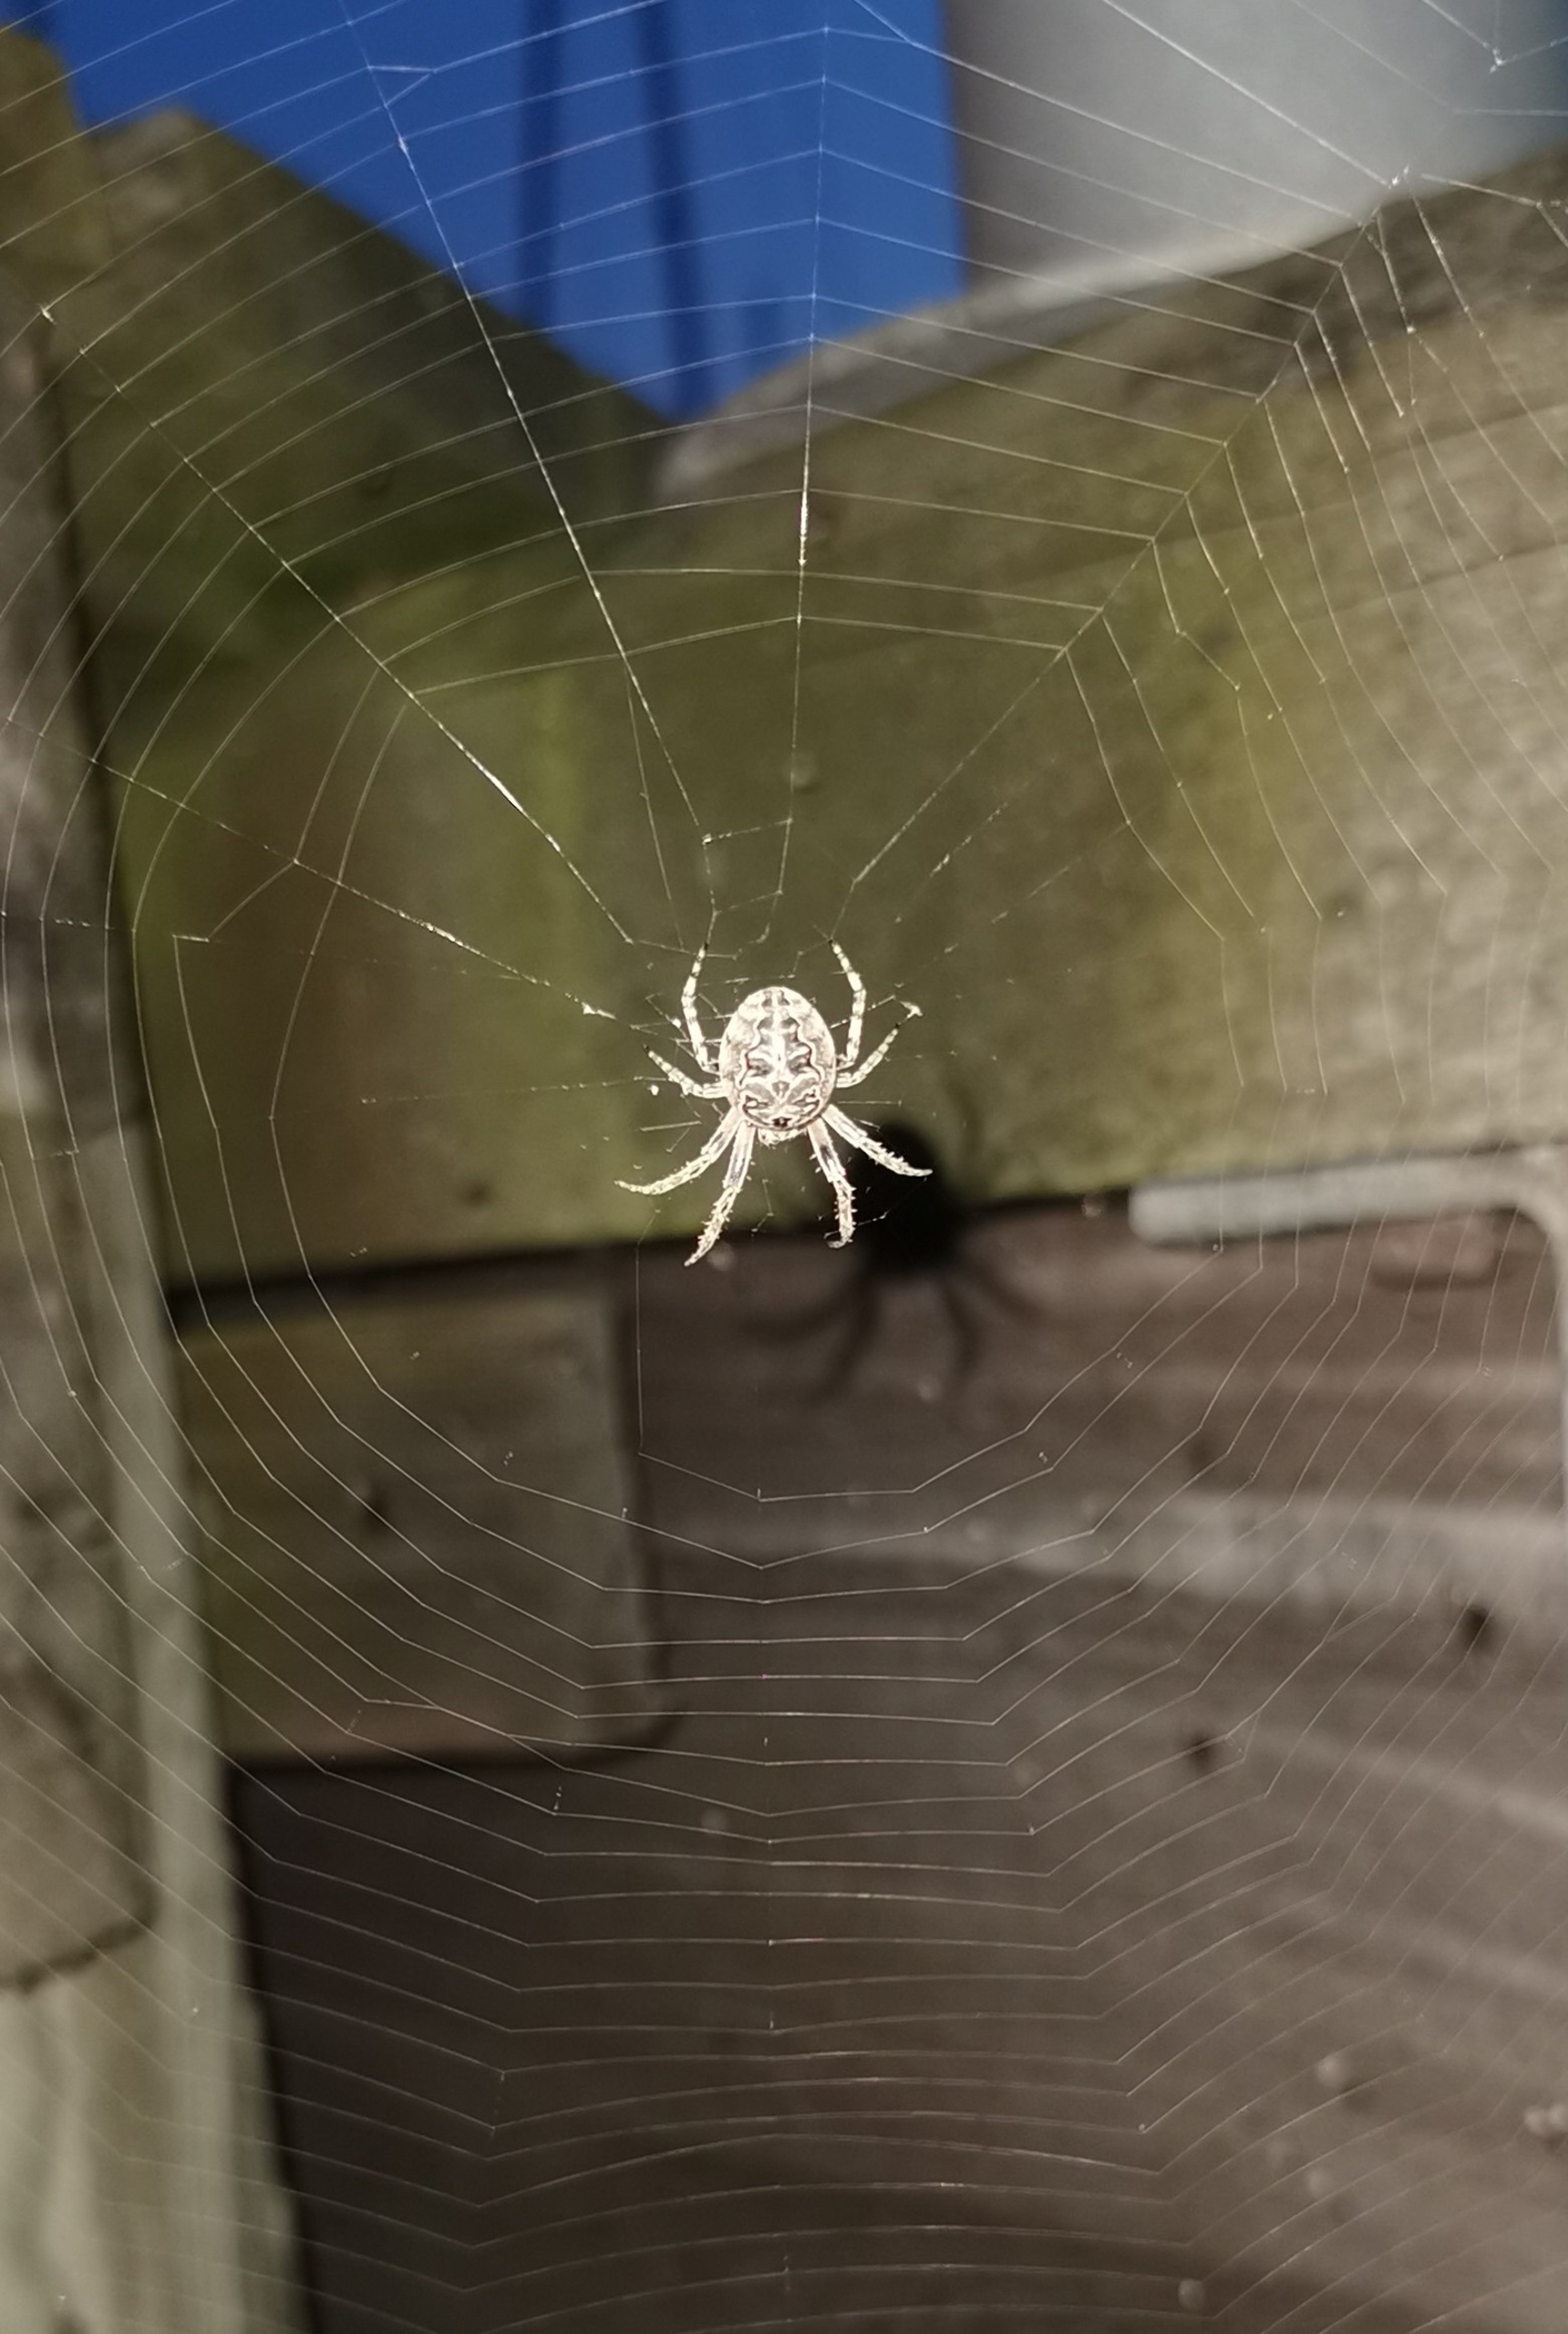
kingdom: Animalia
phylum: Arthropoda
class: Arachnida
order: Araneae
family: Araneidae
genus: Larinioides
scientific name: Larinioides sclopetarius
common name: Bolværksedderkop
